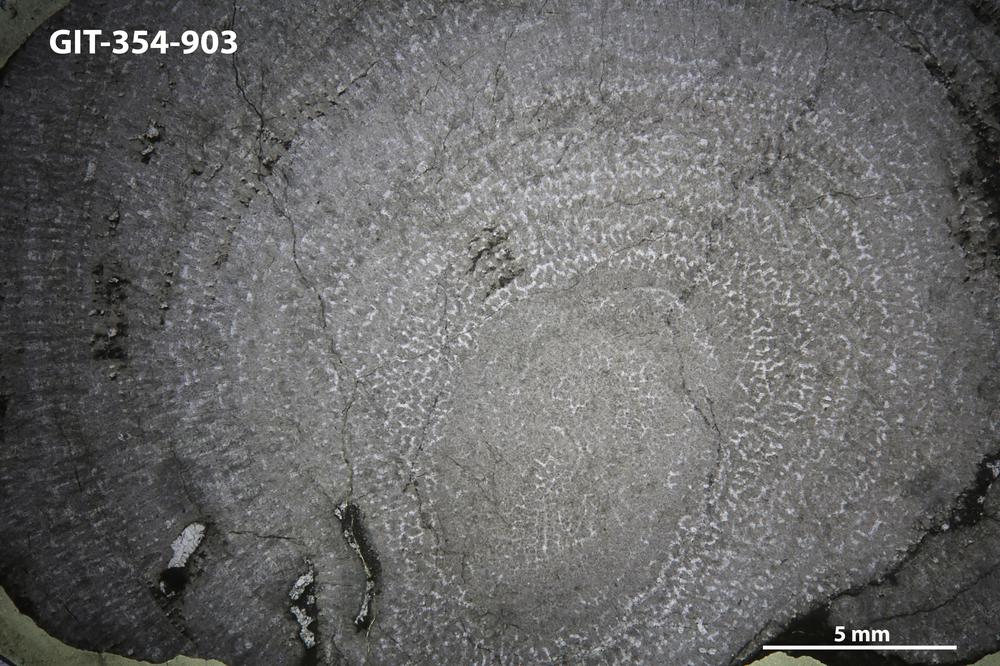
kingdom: Animalia
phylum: Porifera
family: Pseudolabechiidae
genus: Vikingia
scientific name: Vikingia
